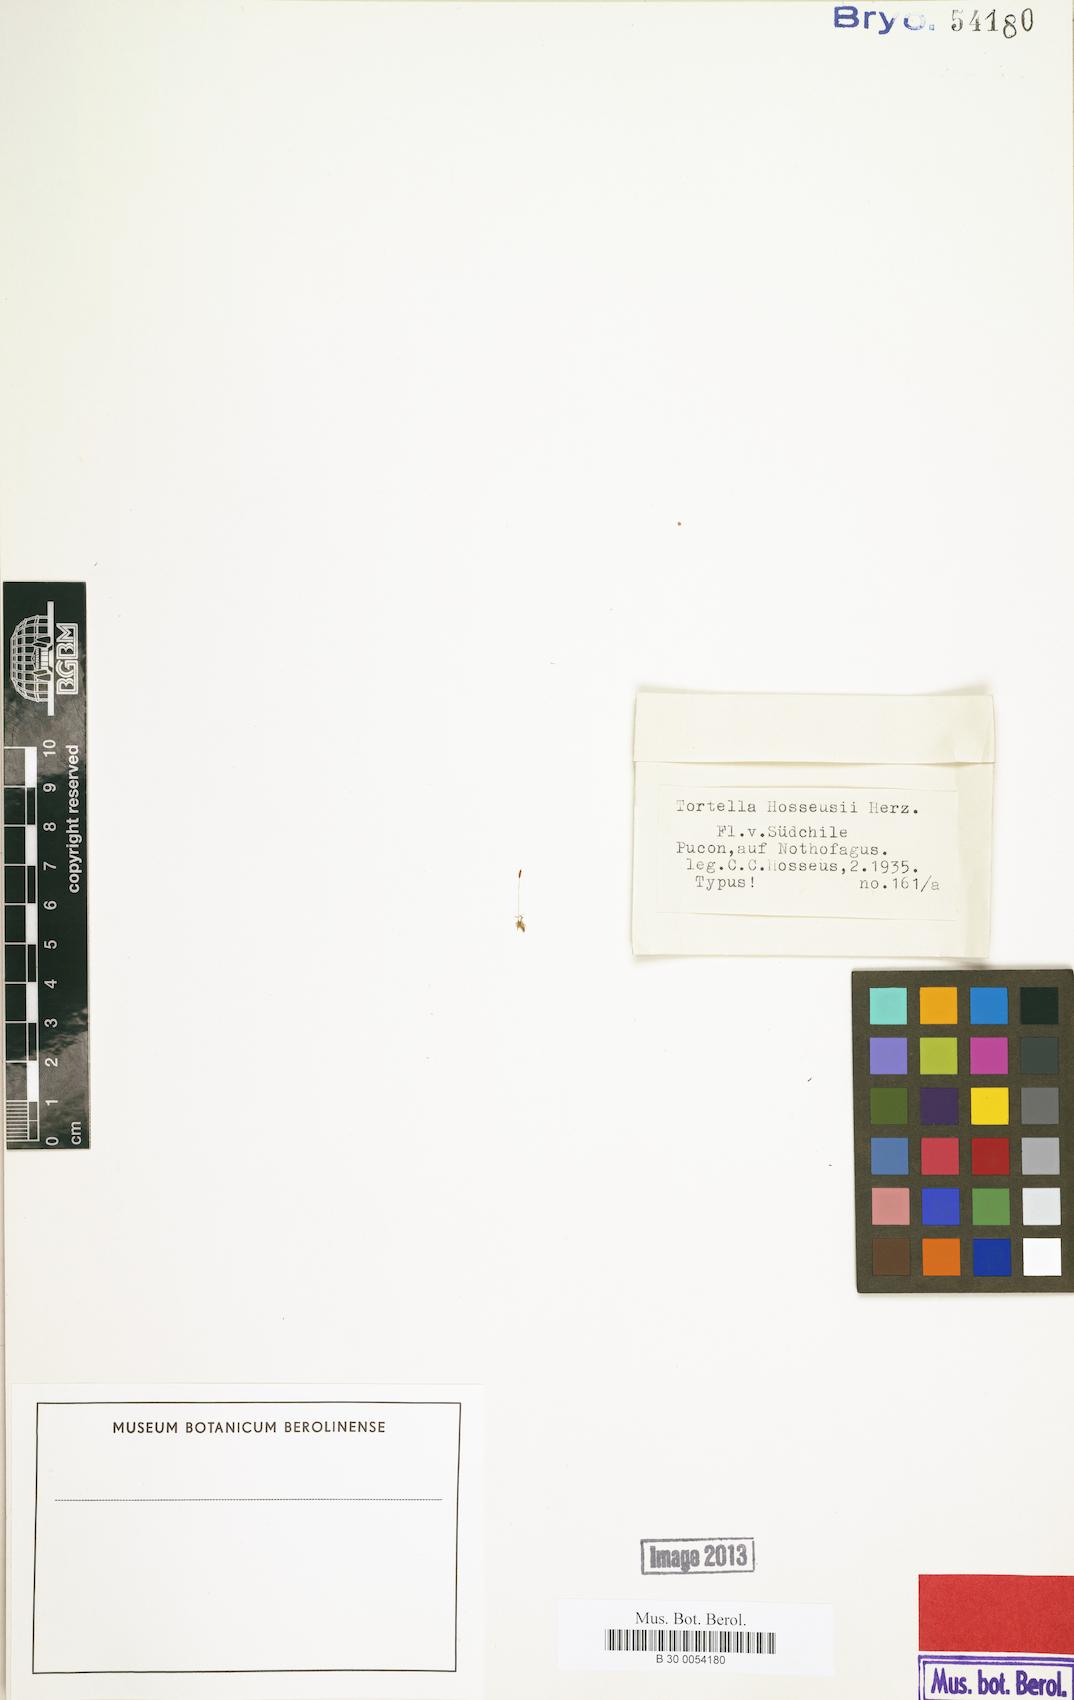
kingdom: Plantae
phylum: Bryophyta
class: Bryopsida
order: Pottiales
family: Pottiaceae
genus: Tortella
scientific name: Tortella hosseusii
